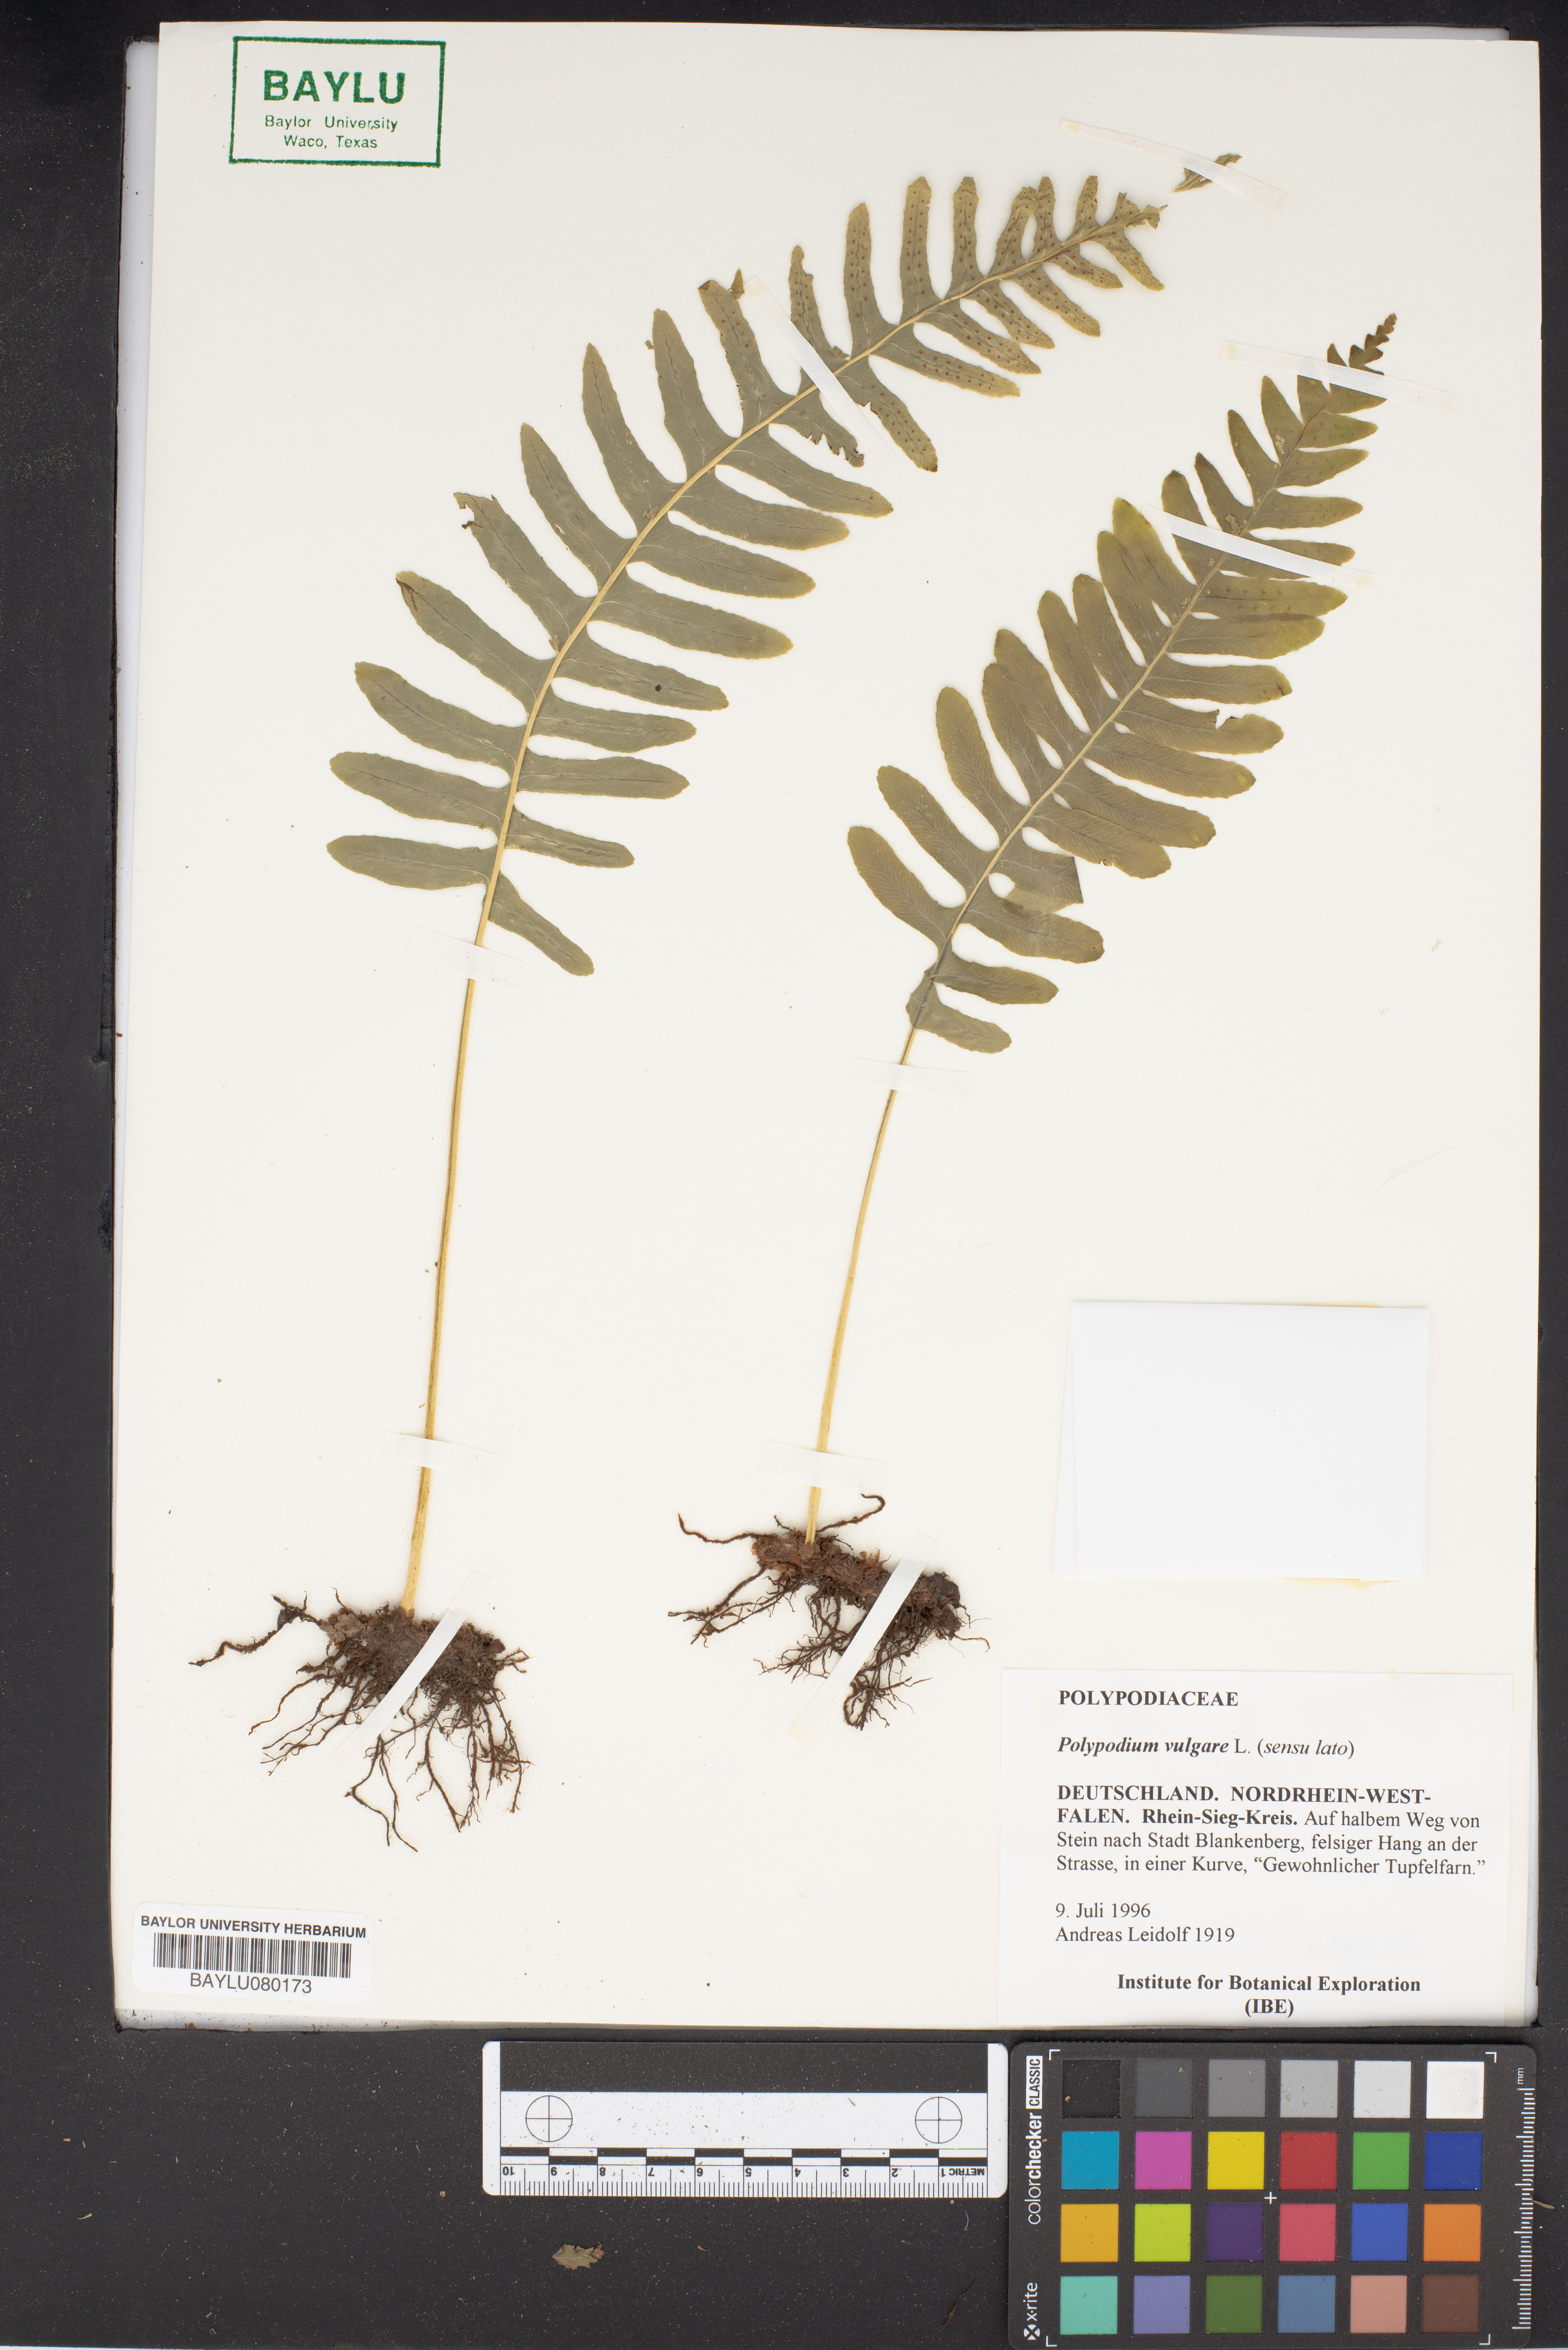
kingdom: Plantae
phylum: Tracheophyta
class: Polypodiopsida
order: Polypodiales
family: Polypodiaceae
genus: Polypodium
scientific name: Polypodium vulgare
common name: Common polypody
